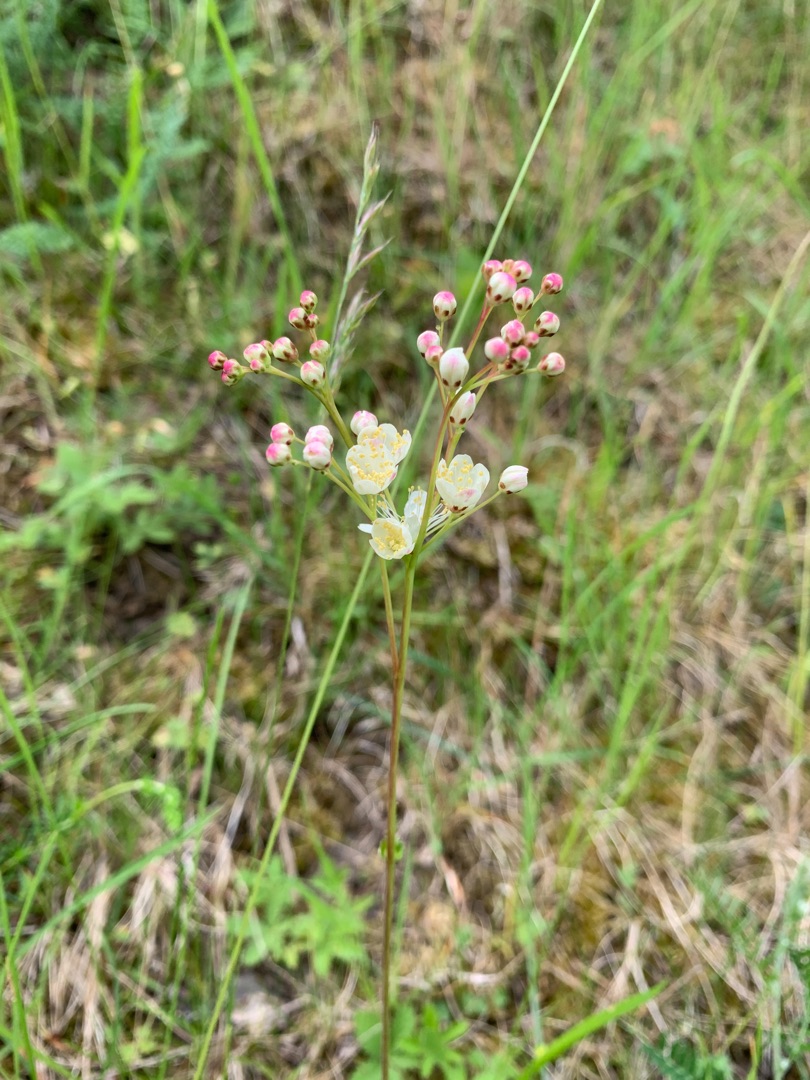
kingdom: Plantae
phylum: Tracheophyta
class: Magnoliopsida
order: Rosales
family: Rosaceae
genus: Filipendula
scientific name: Filipendula vulgaris
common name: Knoldet mjødurt
